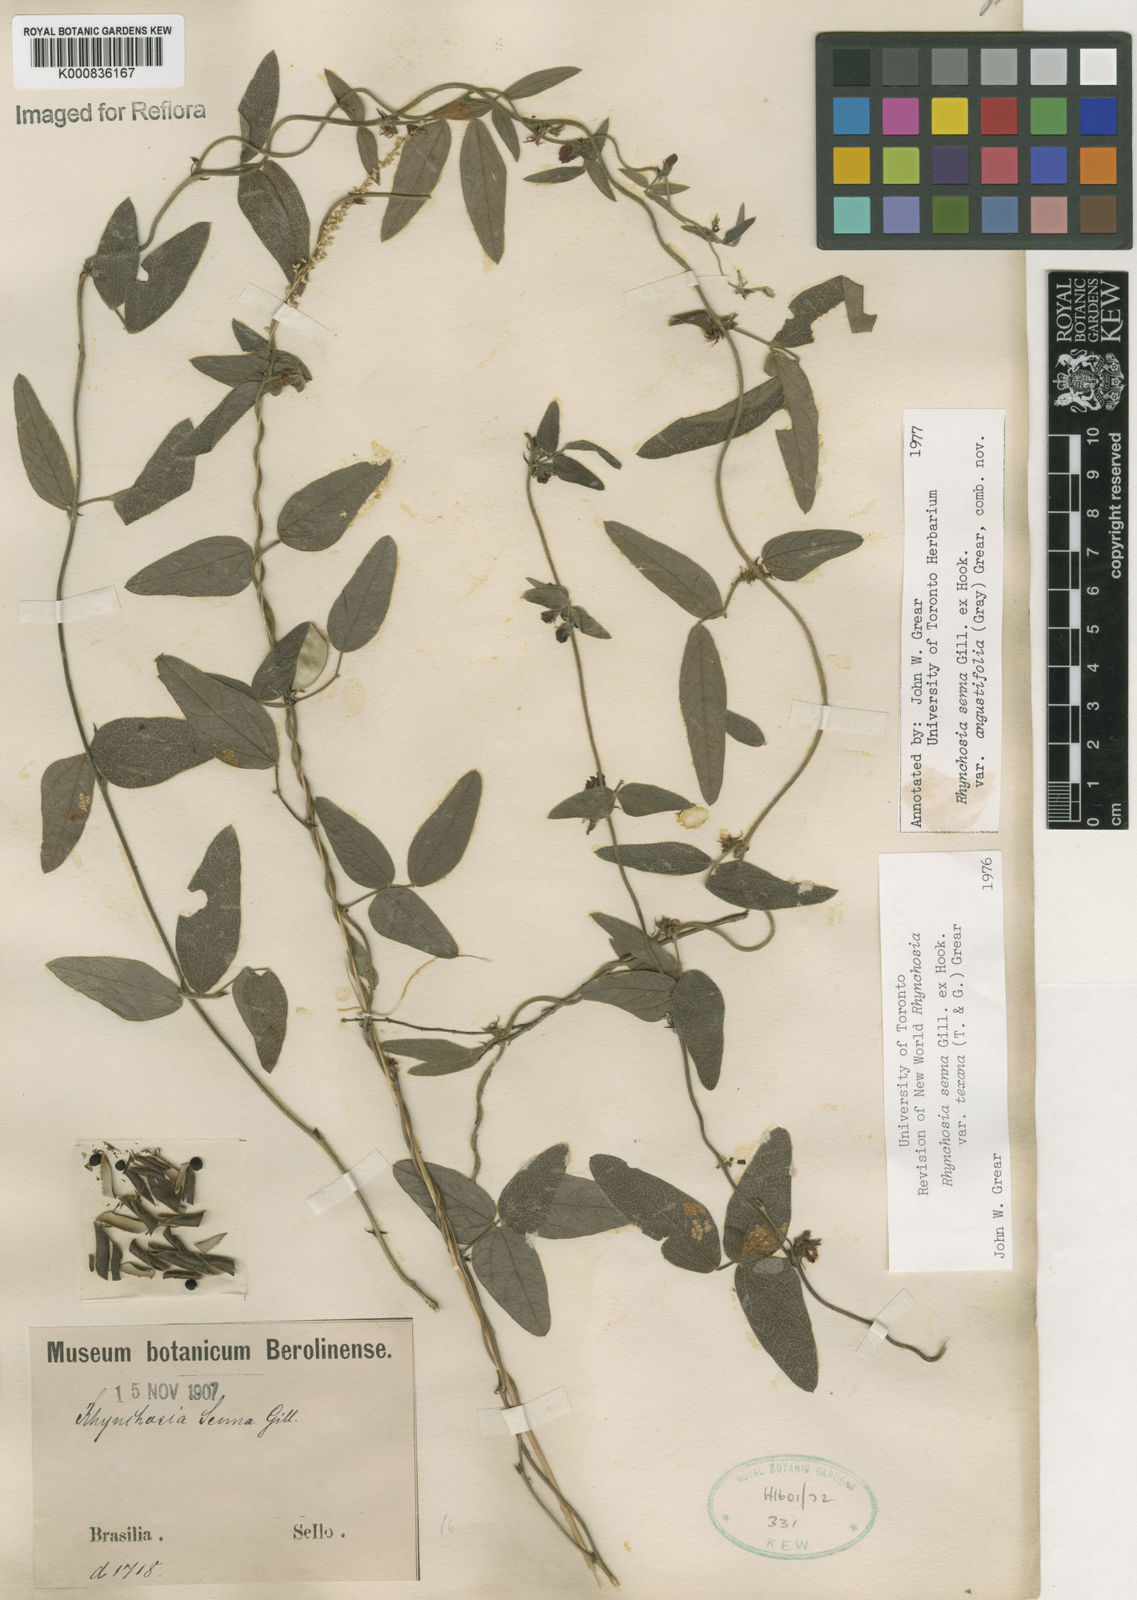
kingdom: Plantae
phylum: Tracheophyta
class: Magnoliopsida
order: Fabales
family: Fabaceae
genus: Rhynchosia
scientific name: Rhynchosia senna
